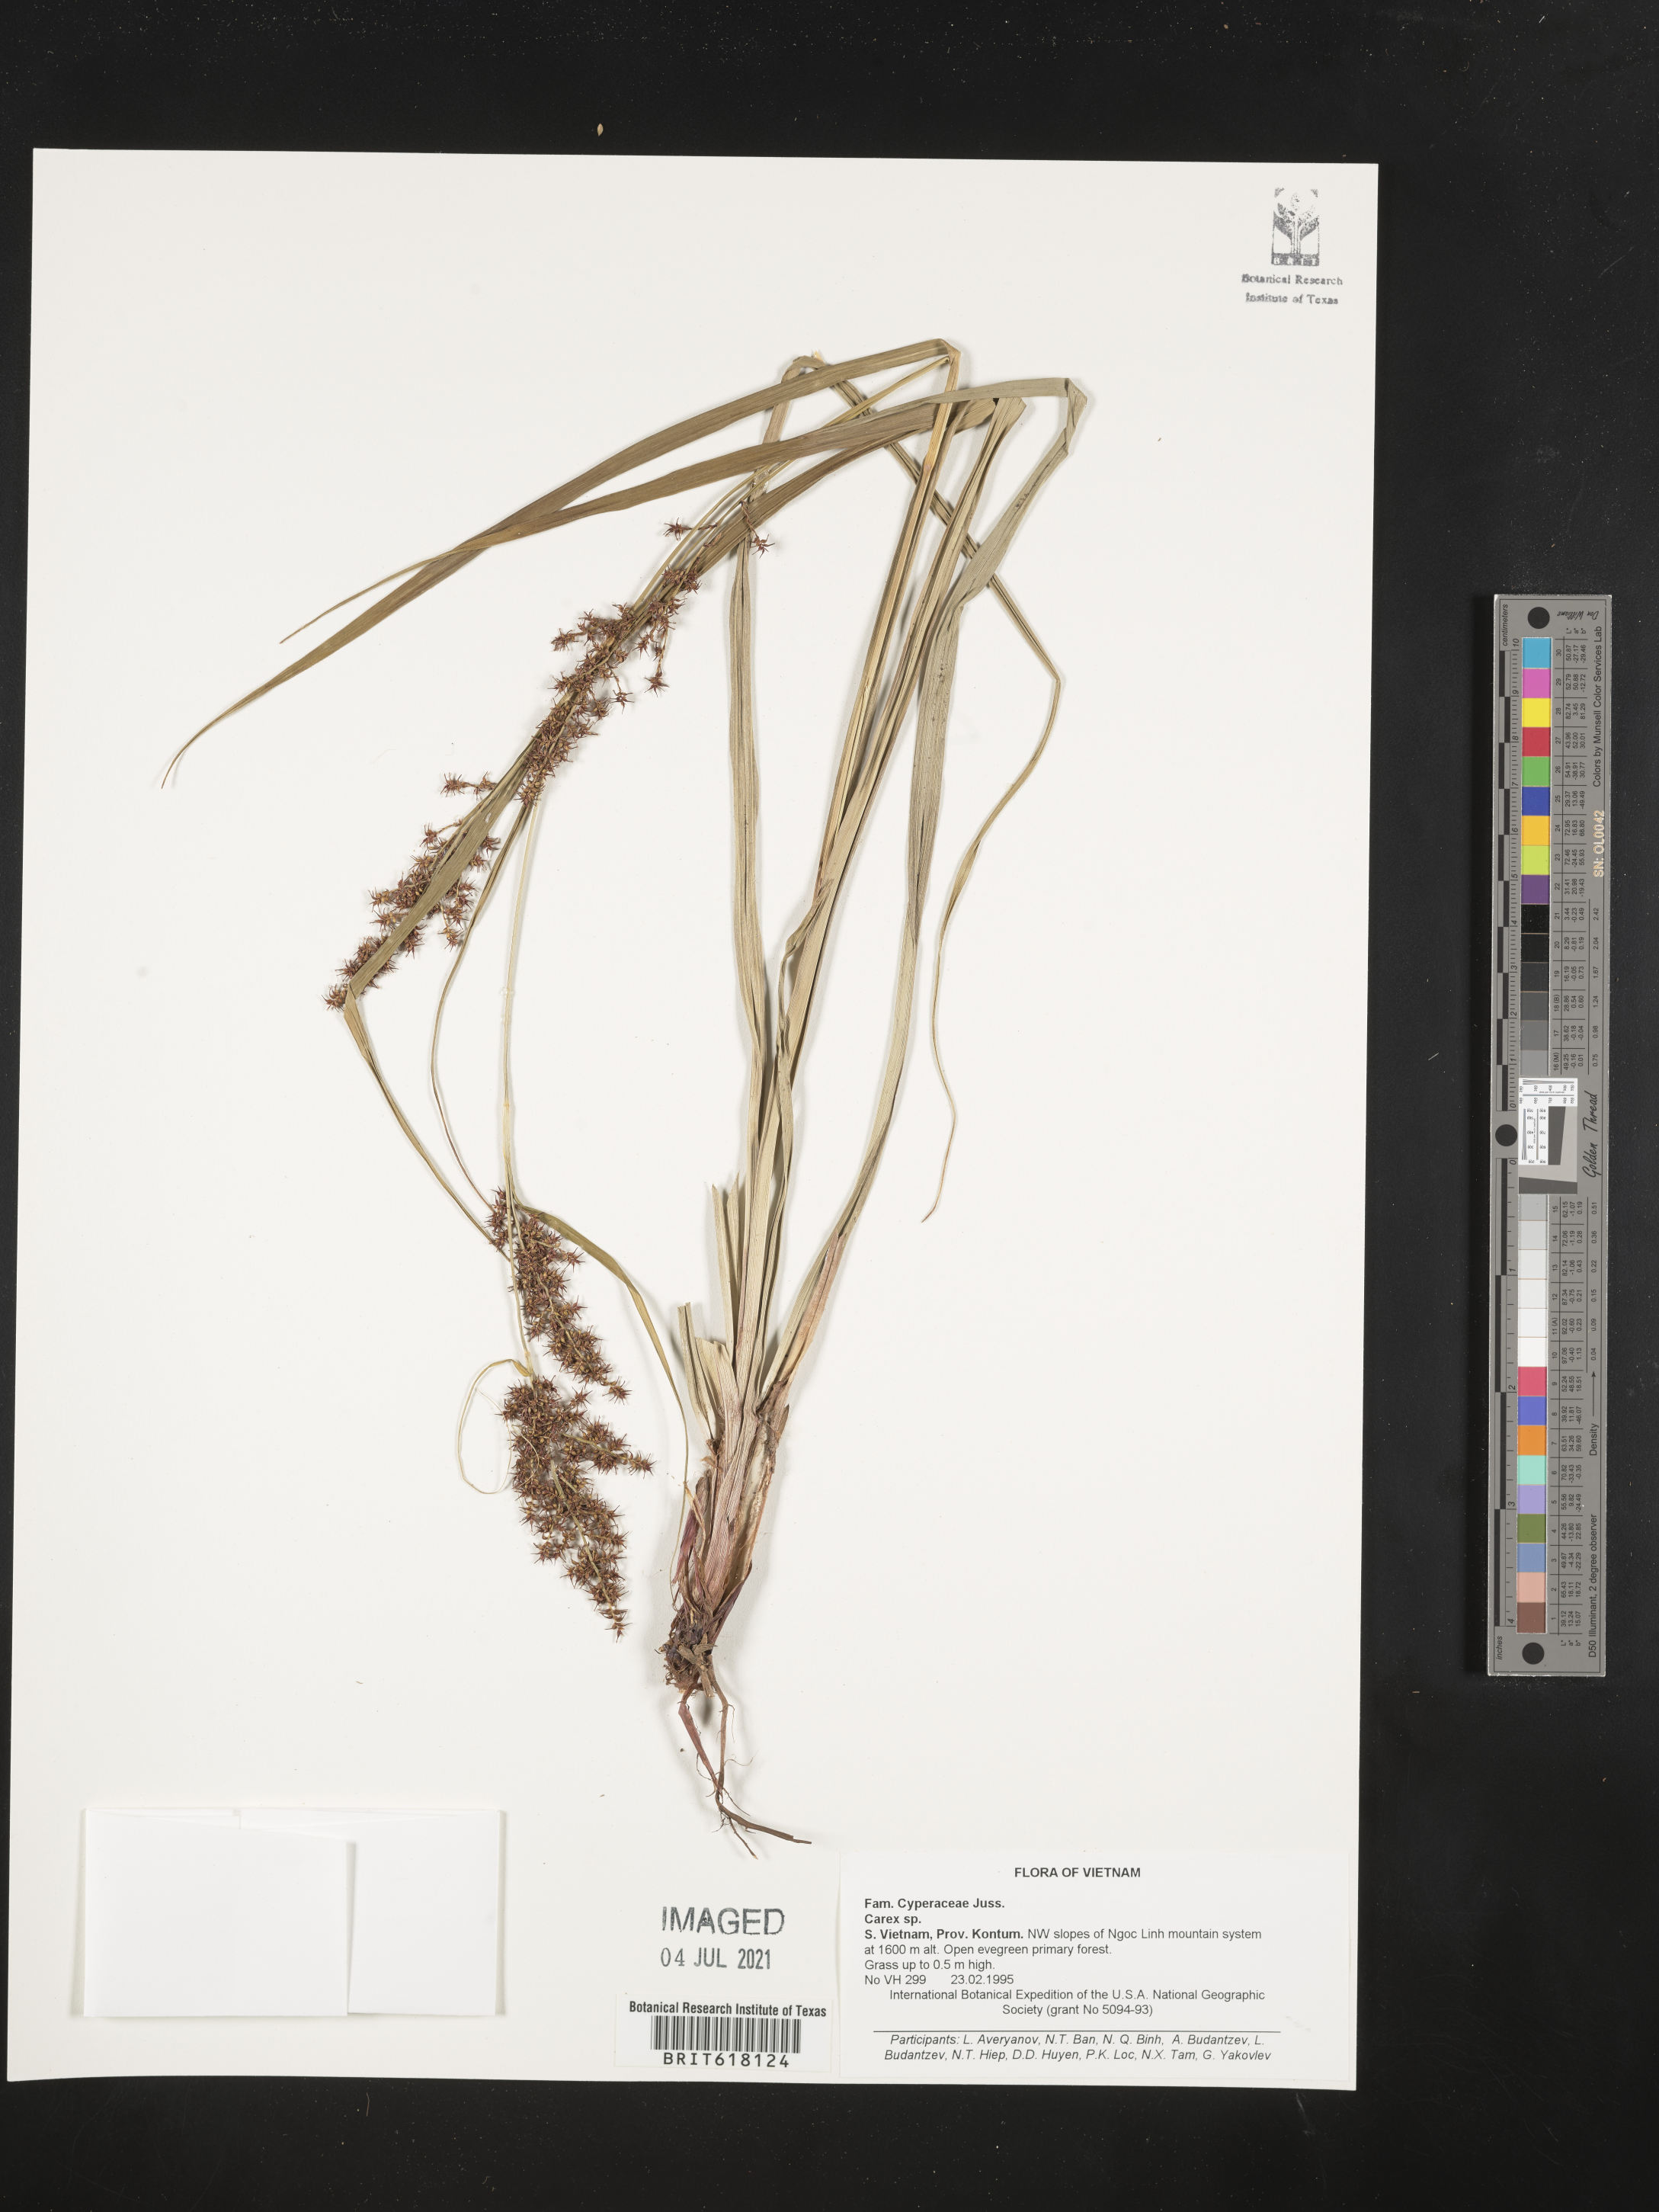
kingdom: Plantae
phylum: Tracheophyta
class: Liliopsida
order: Poales
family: Cyperaceae
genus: Carex
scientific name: Carex
